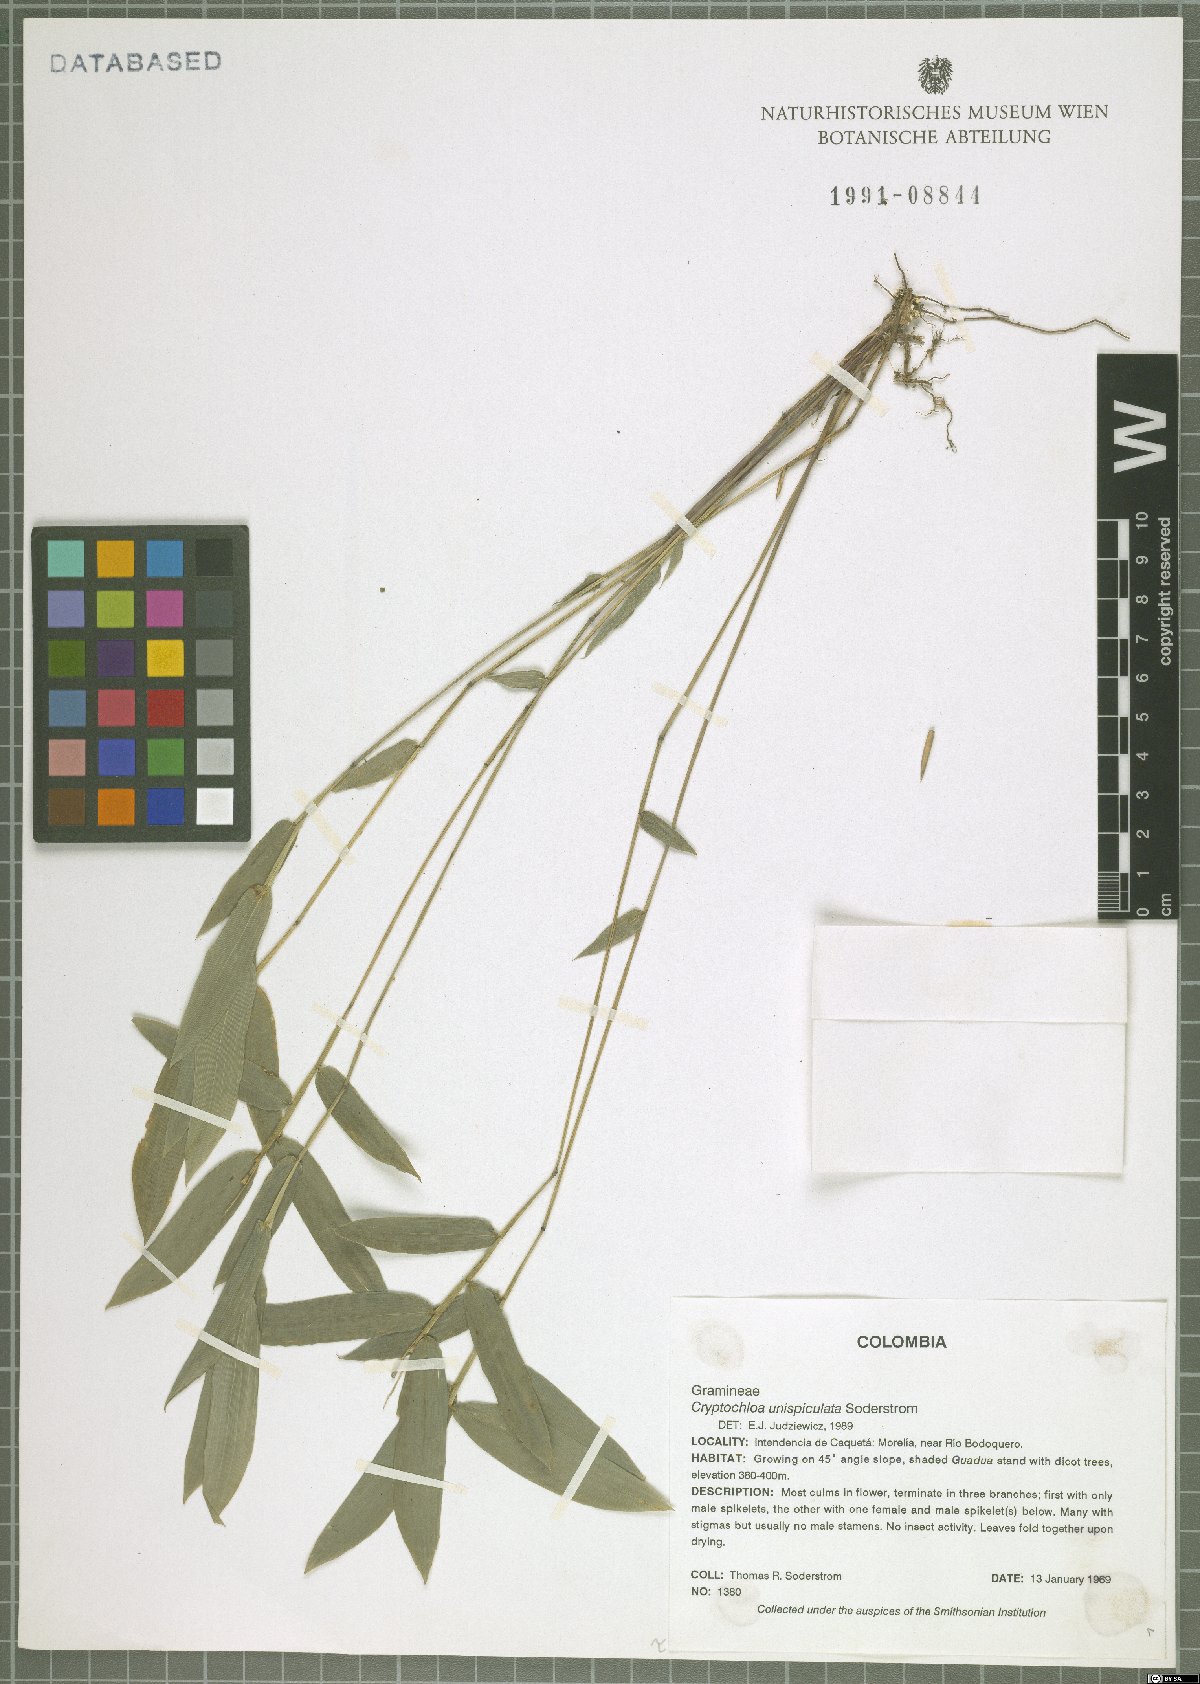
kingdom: Plantae
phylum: Tracheophyta
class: Liliopsida
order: Poales
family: Poaceae
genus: Cryptochloa
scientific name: Cryptochloa unispiculata
